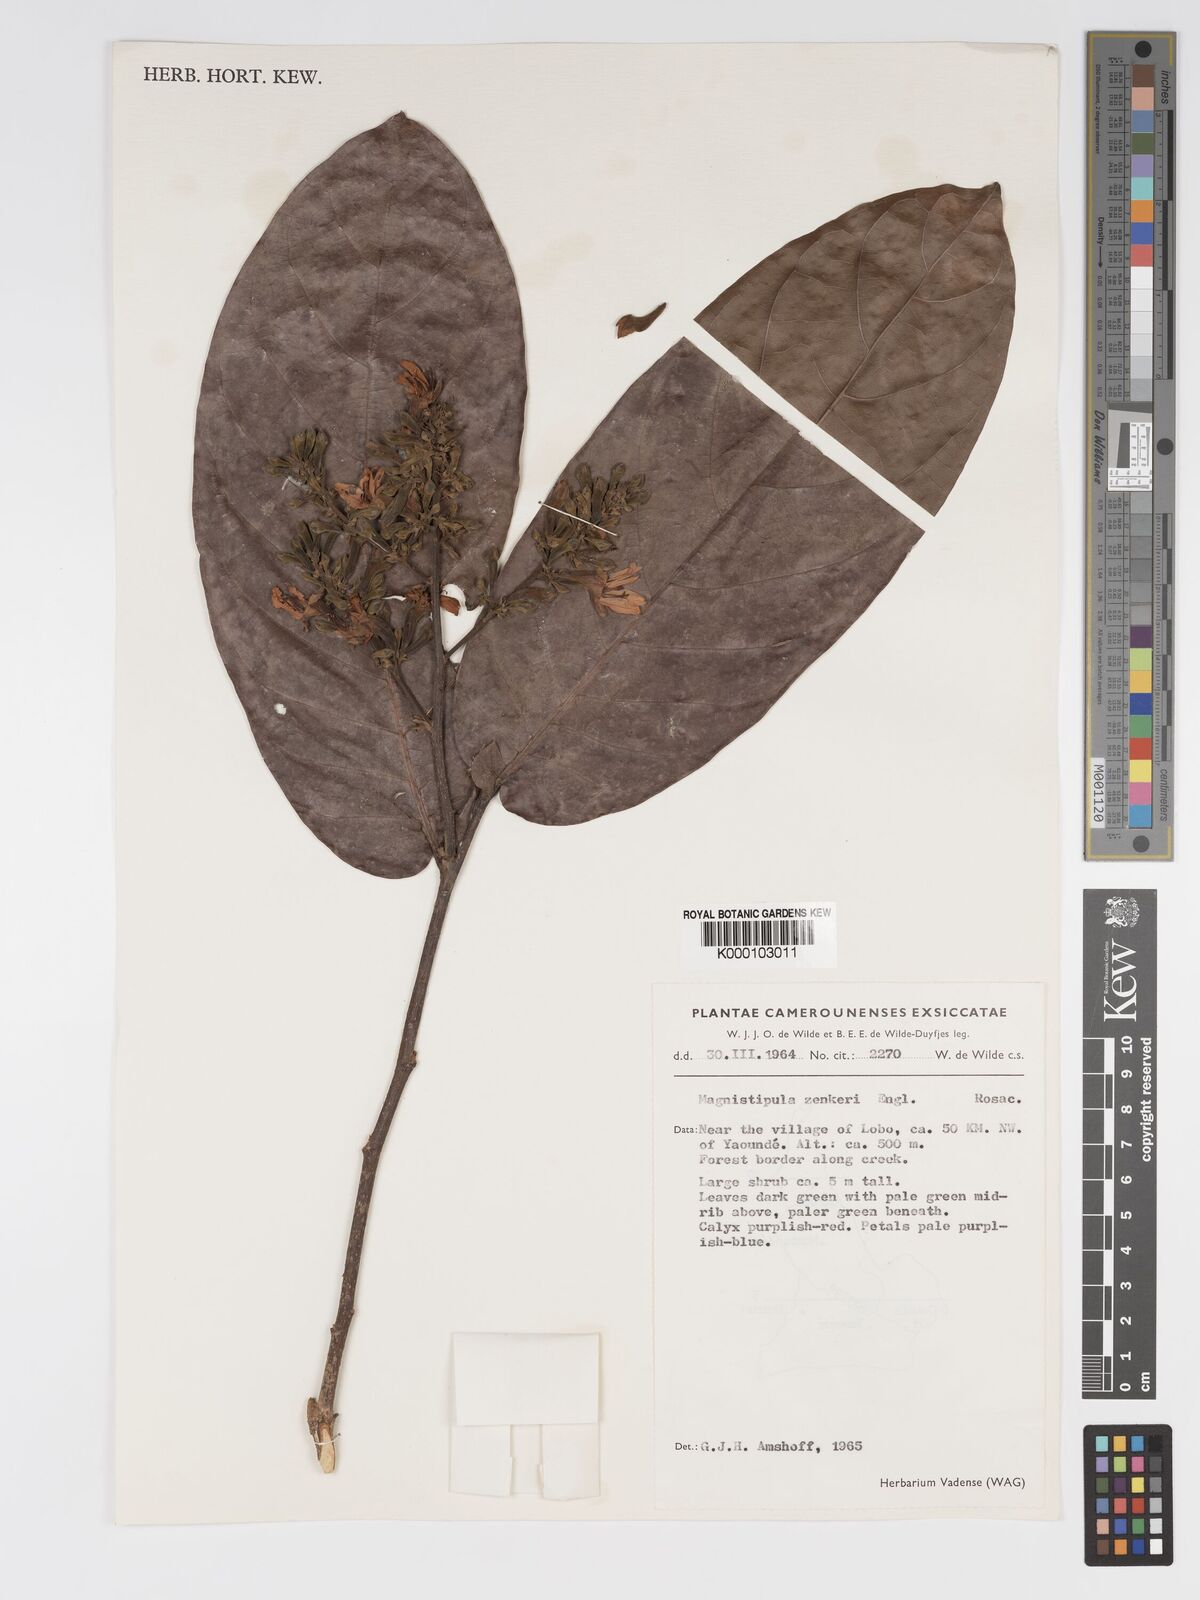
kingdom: Plantae
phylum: Tracheophyta
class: Magnoliopsida
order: Malpighiales
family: Chrysobalanaceae
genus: Magnistipula
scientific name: Magnistipula zenkeri
